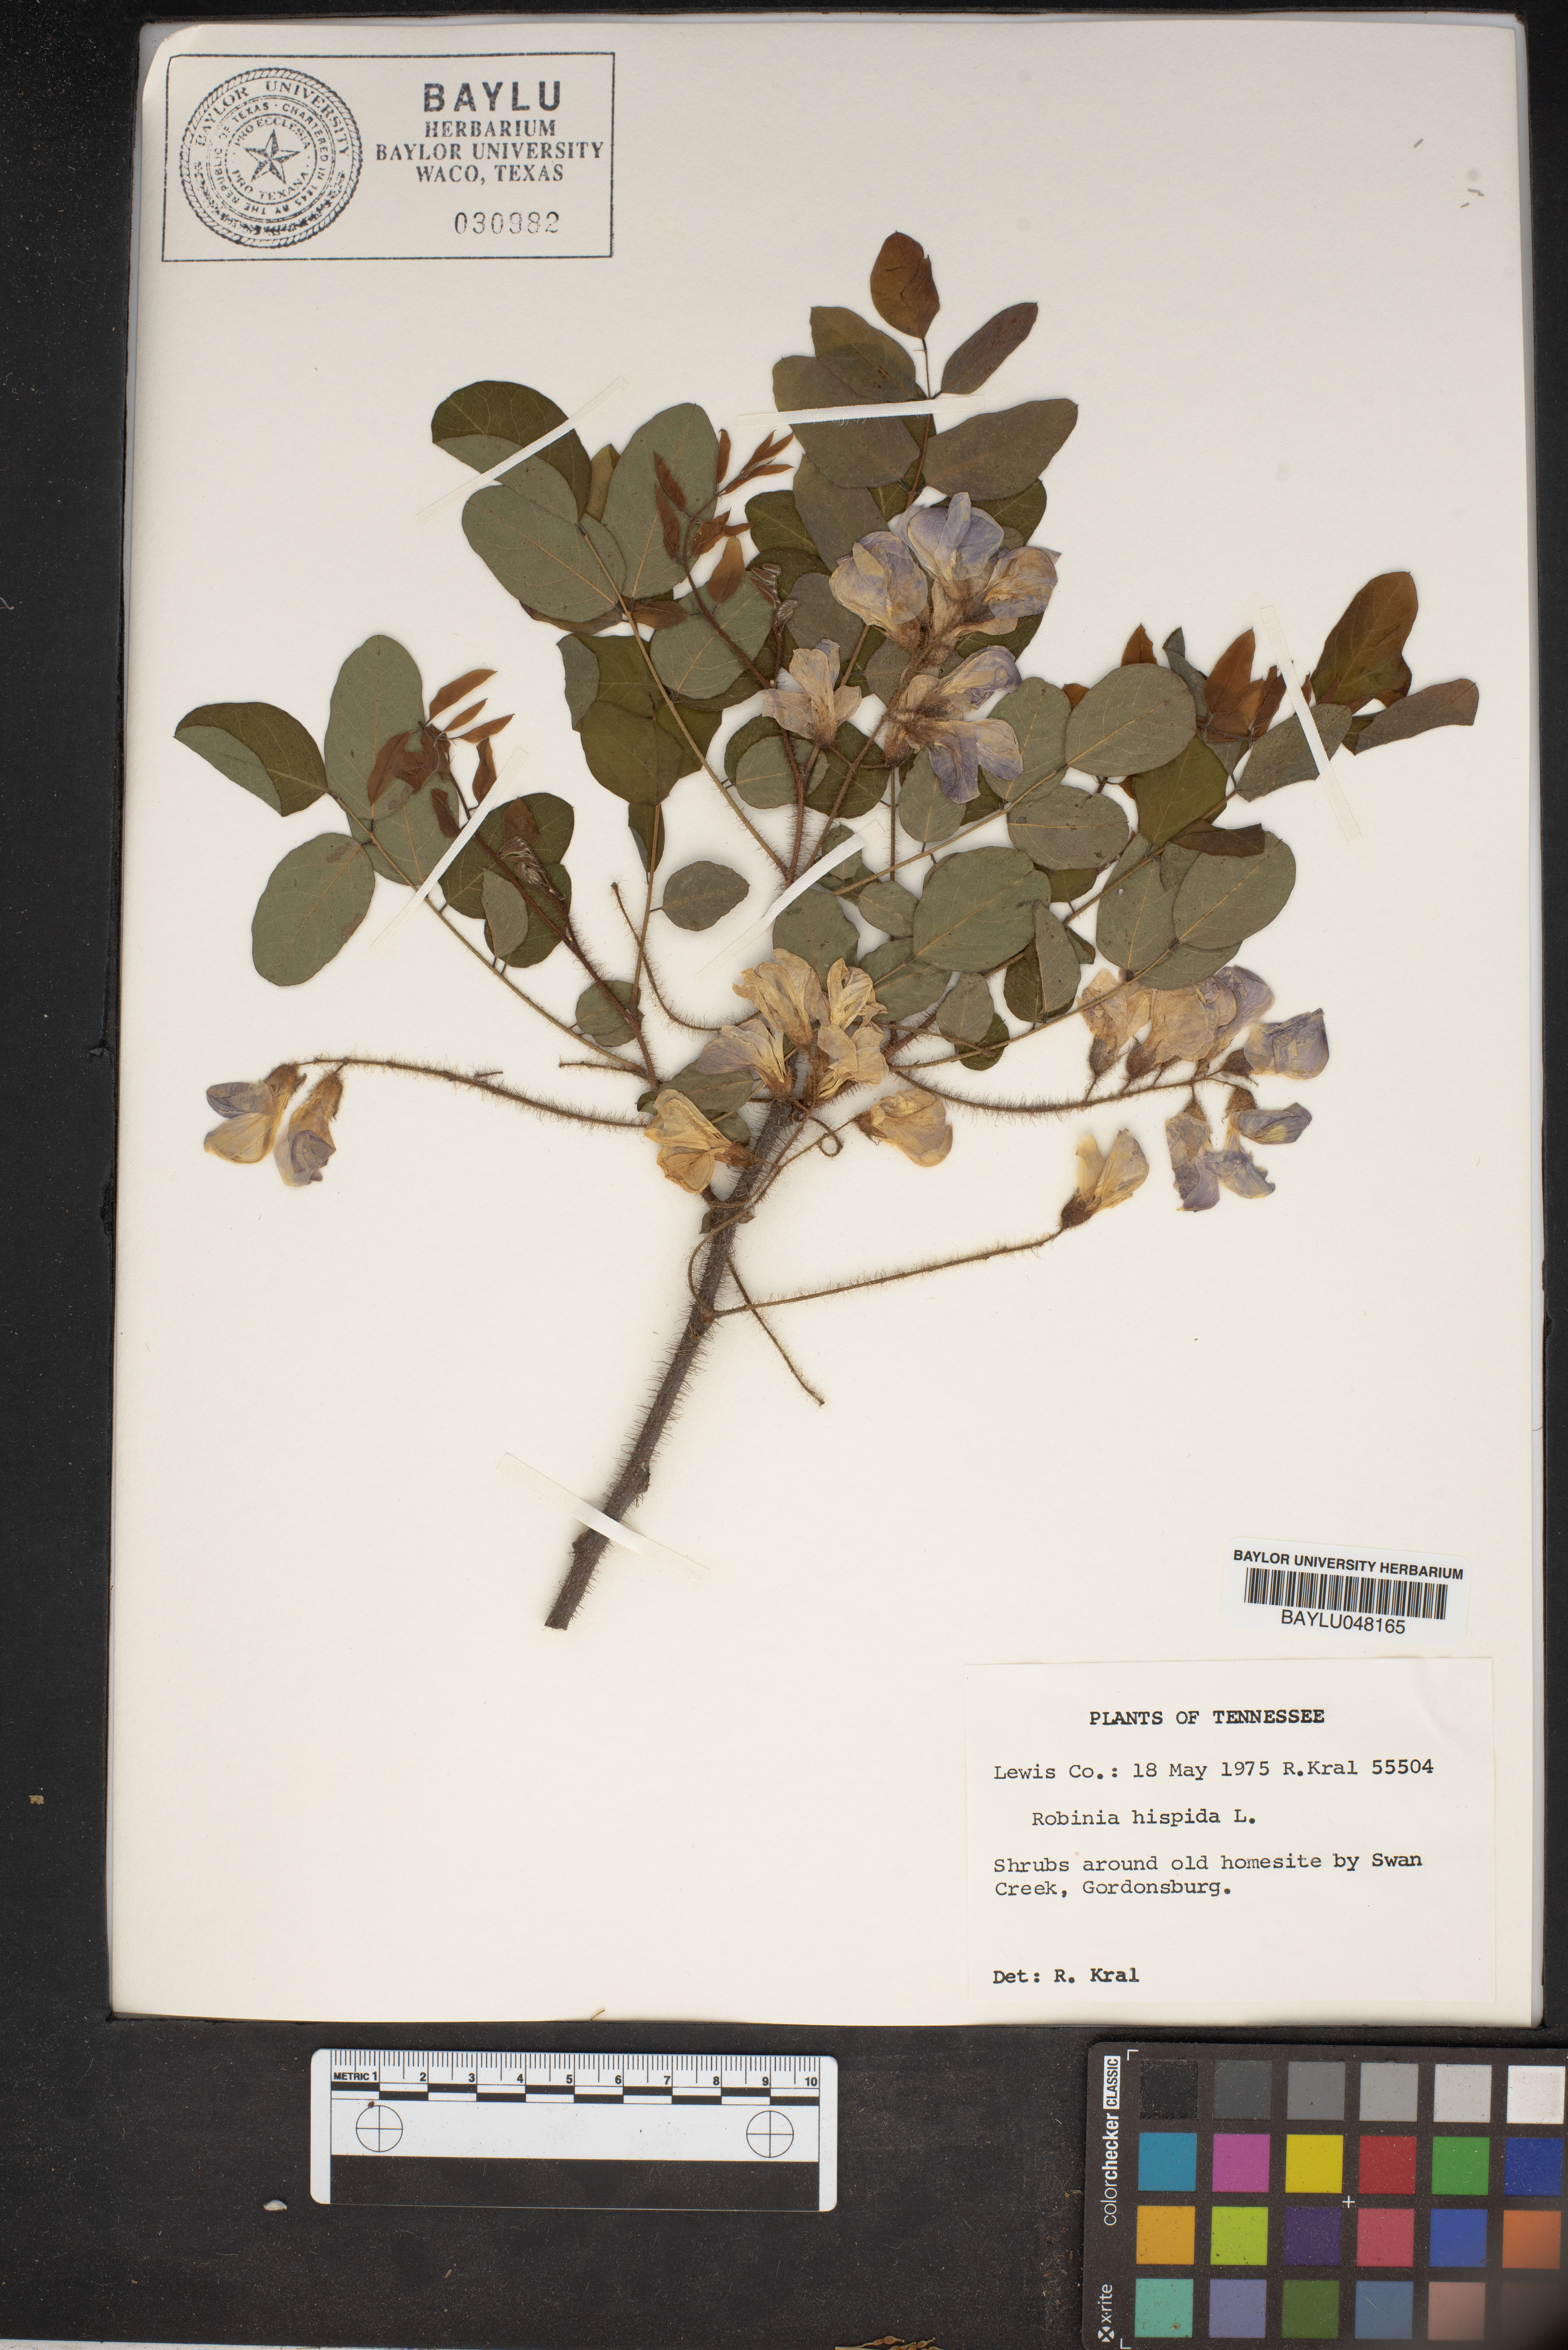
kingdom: Plantae
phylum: Tracheophyta
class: Magnoliopsida
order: Fabales
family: Fabaceae
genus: Robinia
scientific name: Robinia hispida
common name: Bristly locust
